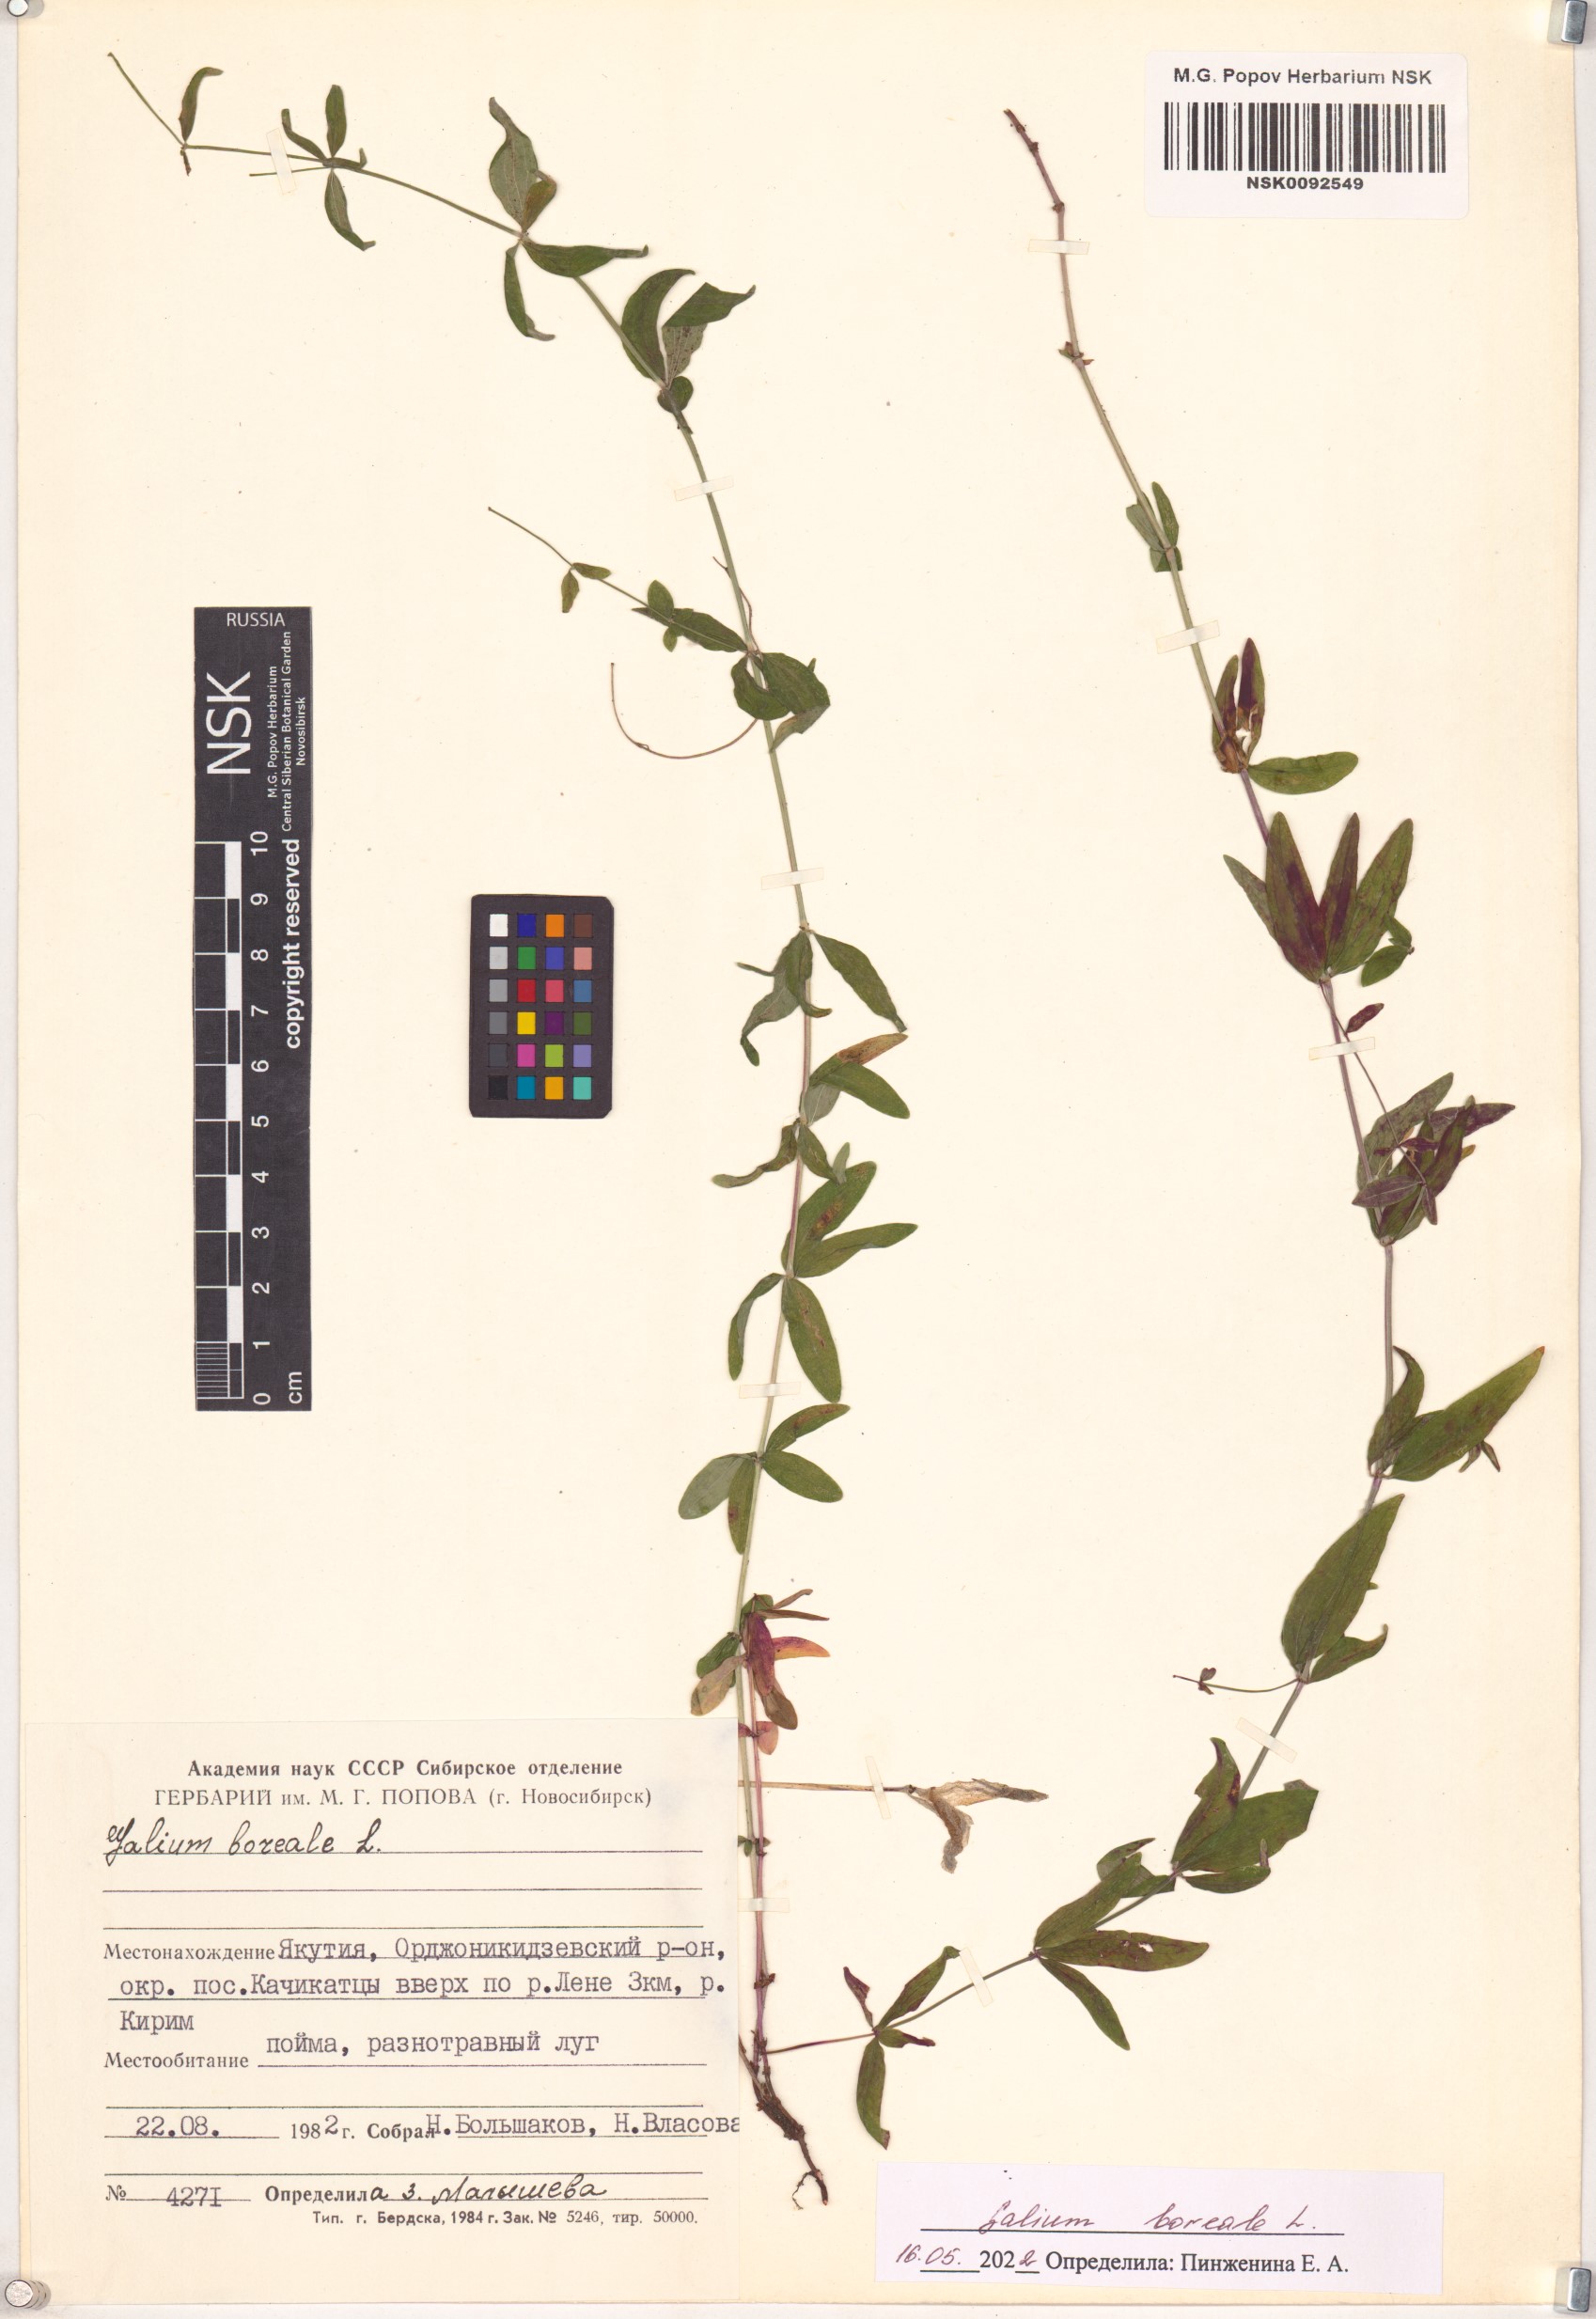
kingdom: Plantae
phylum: Tracheophyta
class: Magnoliopsida
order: Gentianales
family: Rubiaceae
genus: Galium
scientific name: Galium boreale
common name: Northern bedstraw
